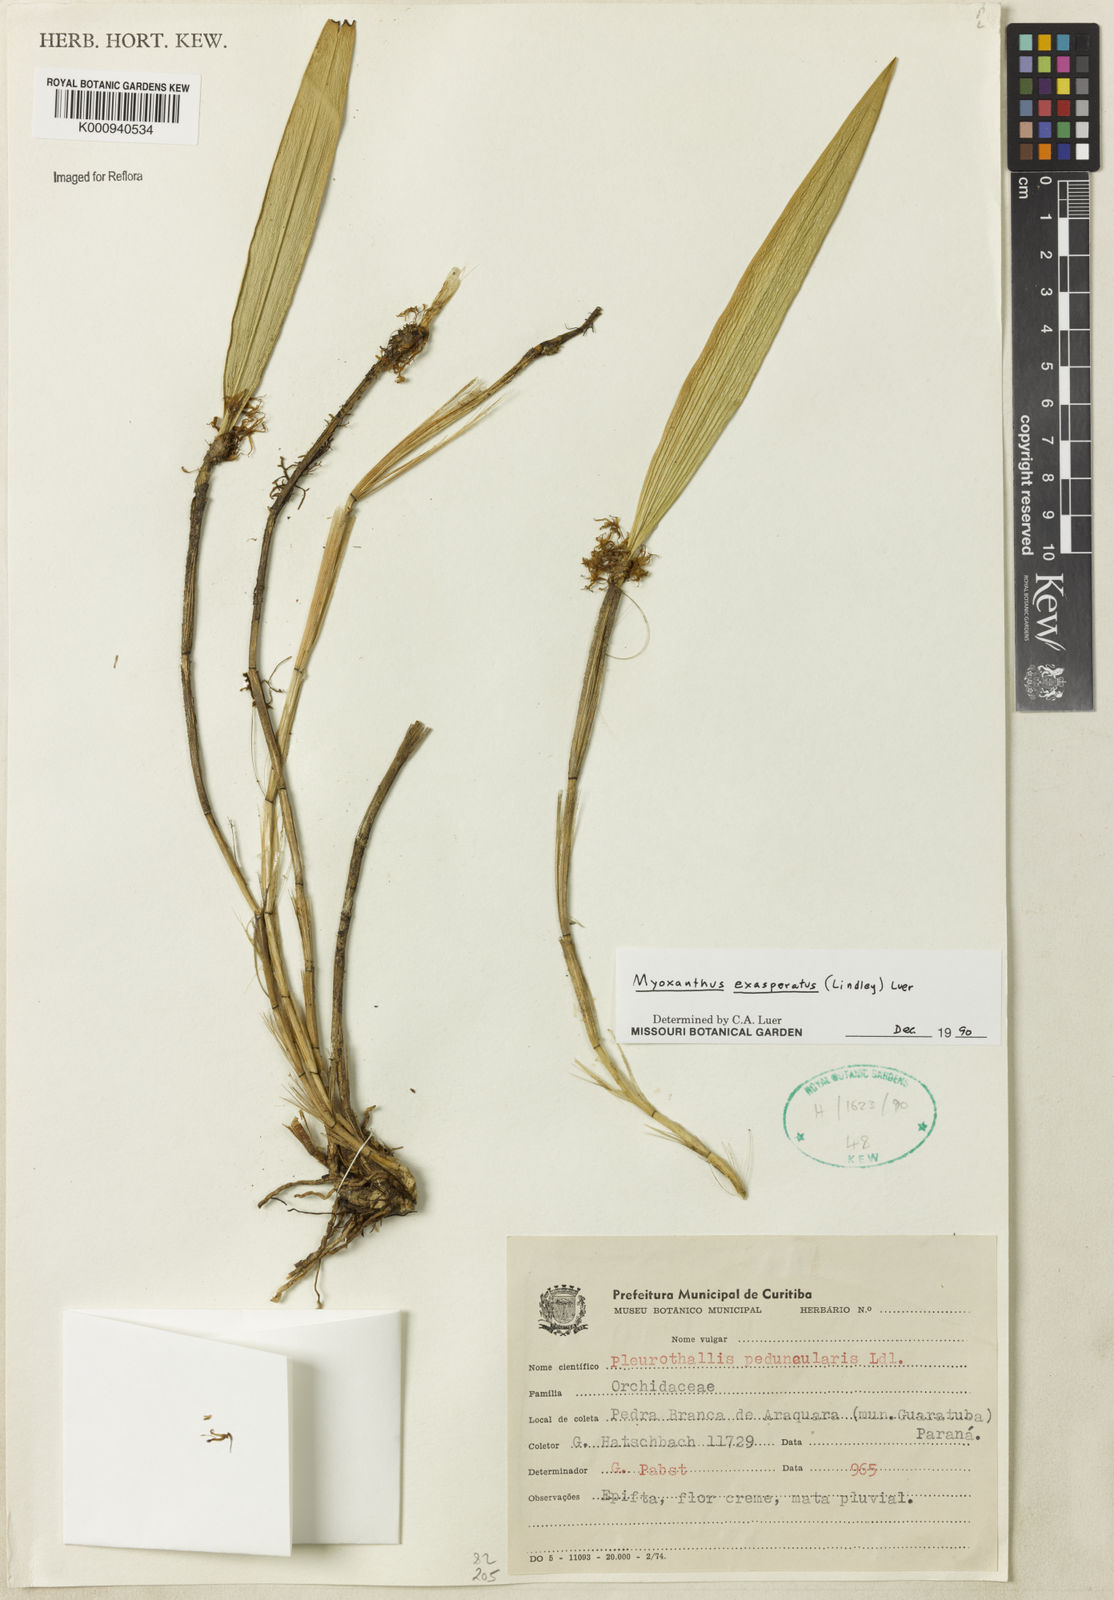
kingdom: Plantae
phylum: Tracheophyta
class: Liliopsida
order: Asparagales
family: Orchidaceae
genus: Myoxanthus
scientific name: Myoxanthus exasperatus
